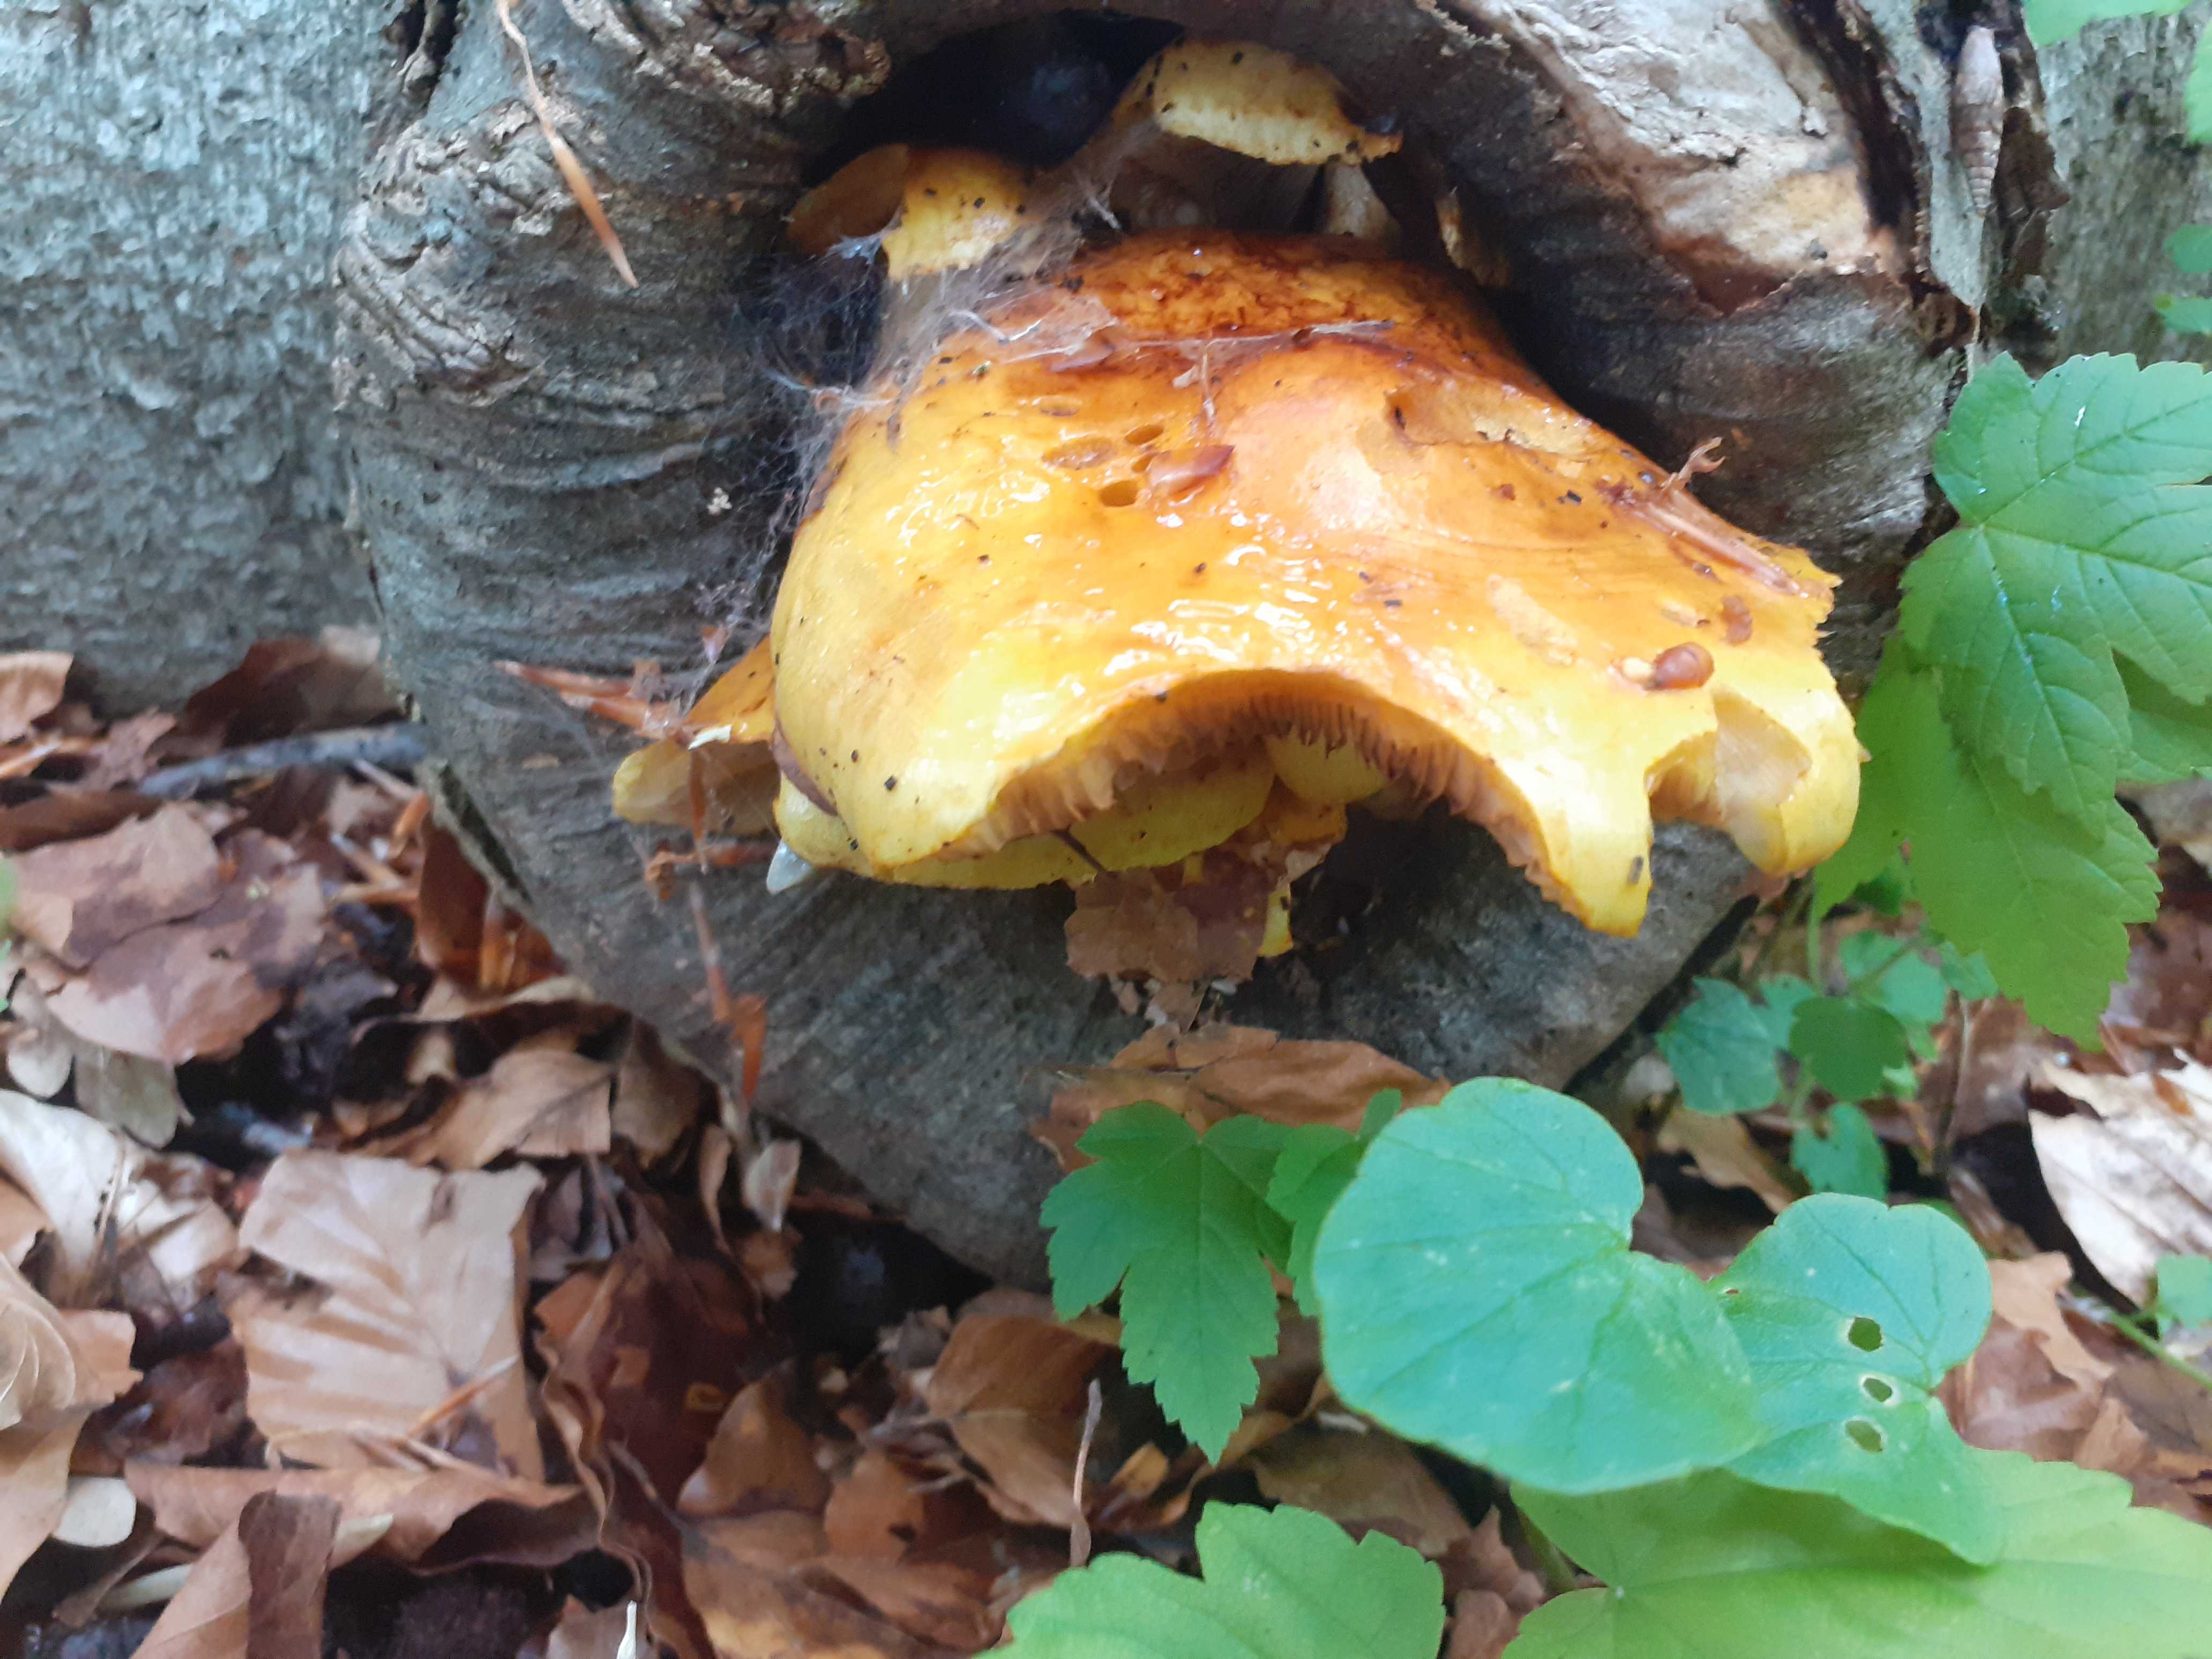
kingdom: Fungi
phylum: Basidiomycota
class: Agaricomycetes
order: Agaricales
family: Strophariaceae
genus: Pholiota
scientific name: Pholiota adiposa
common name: højtsiddende skælhat
